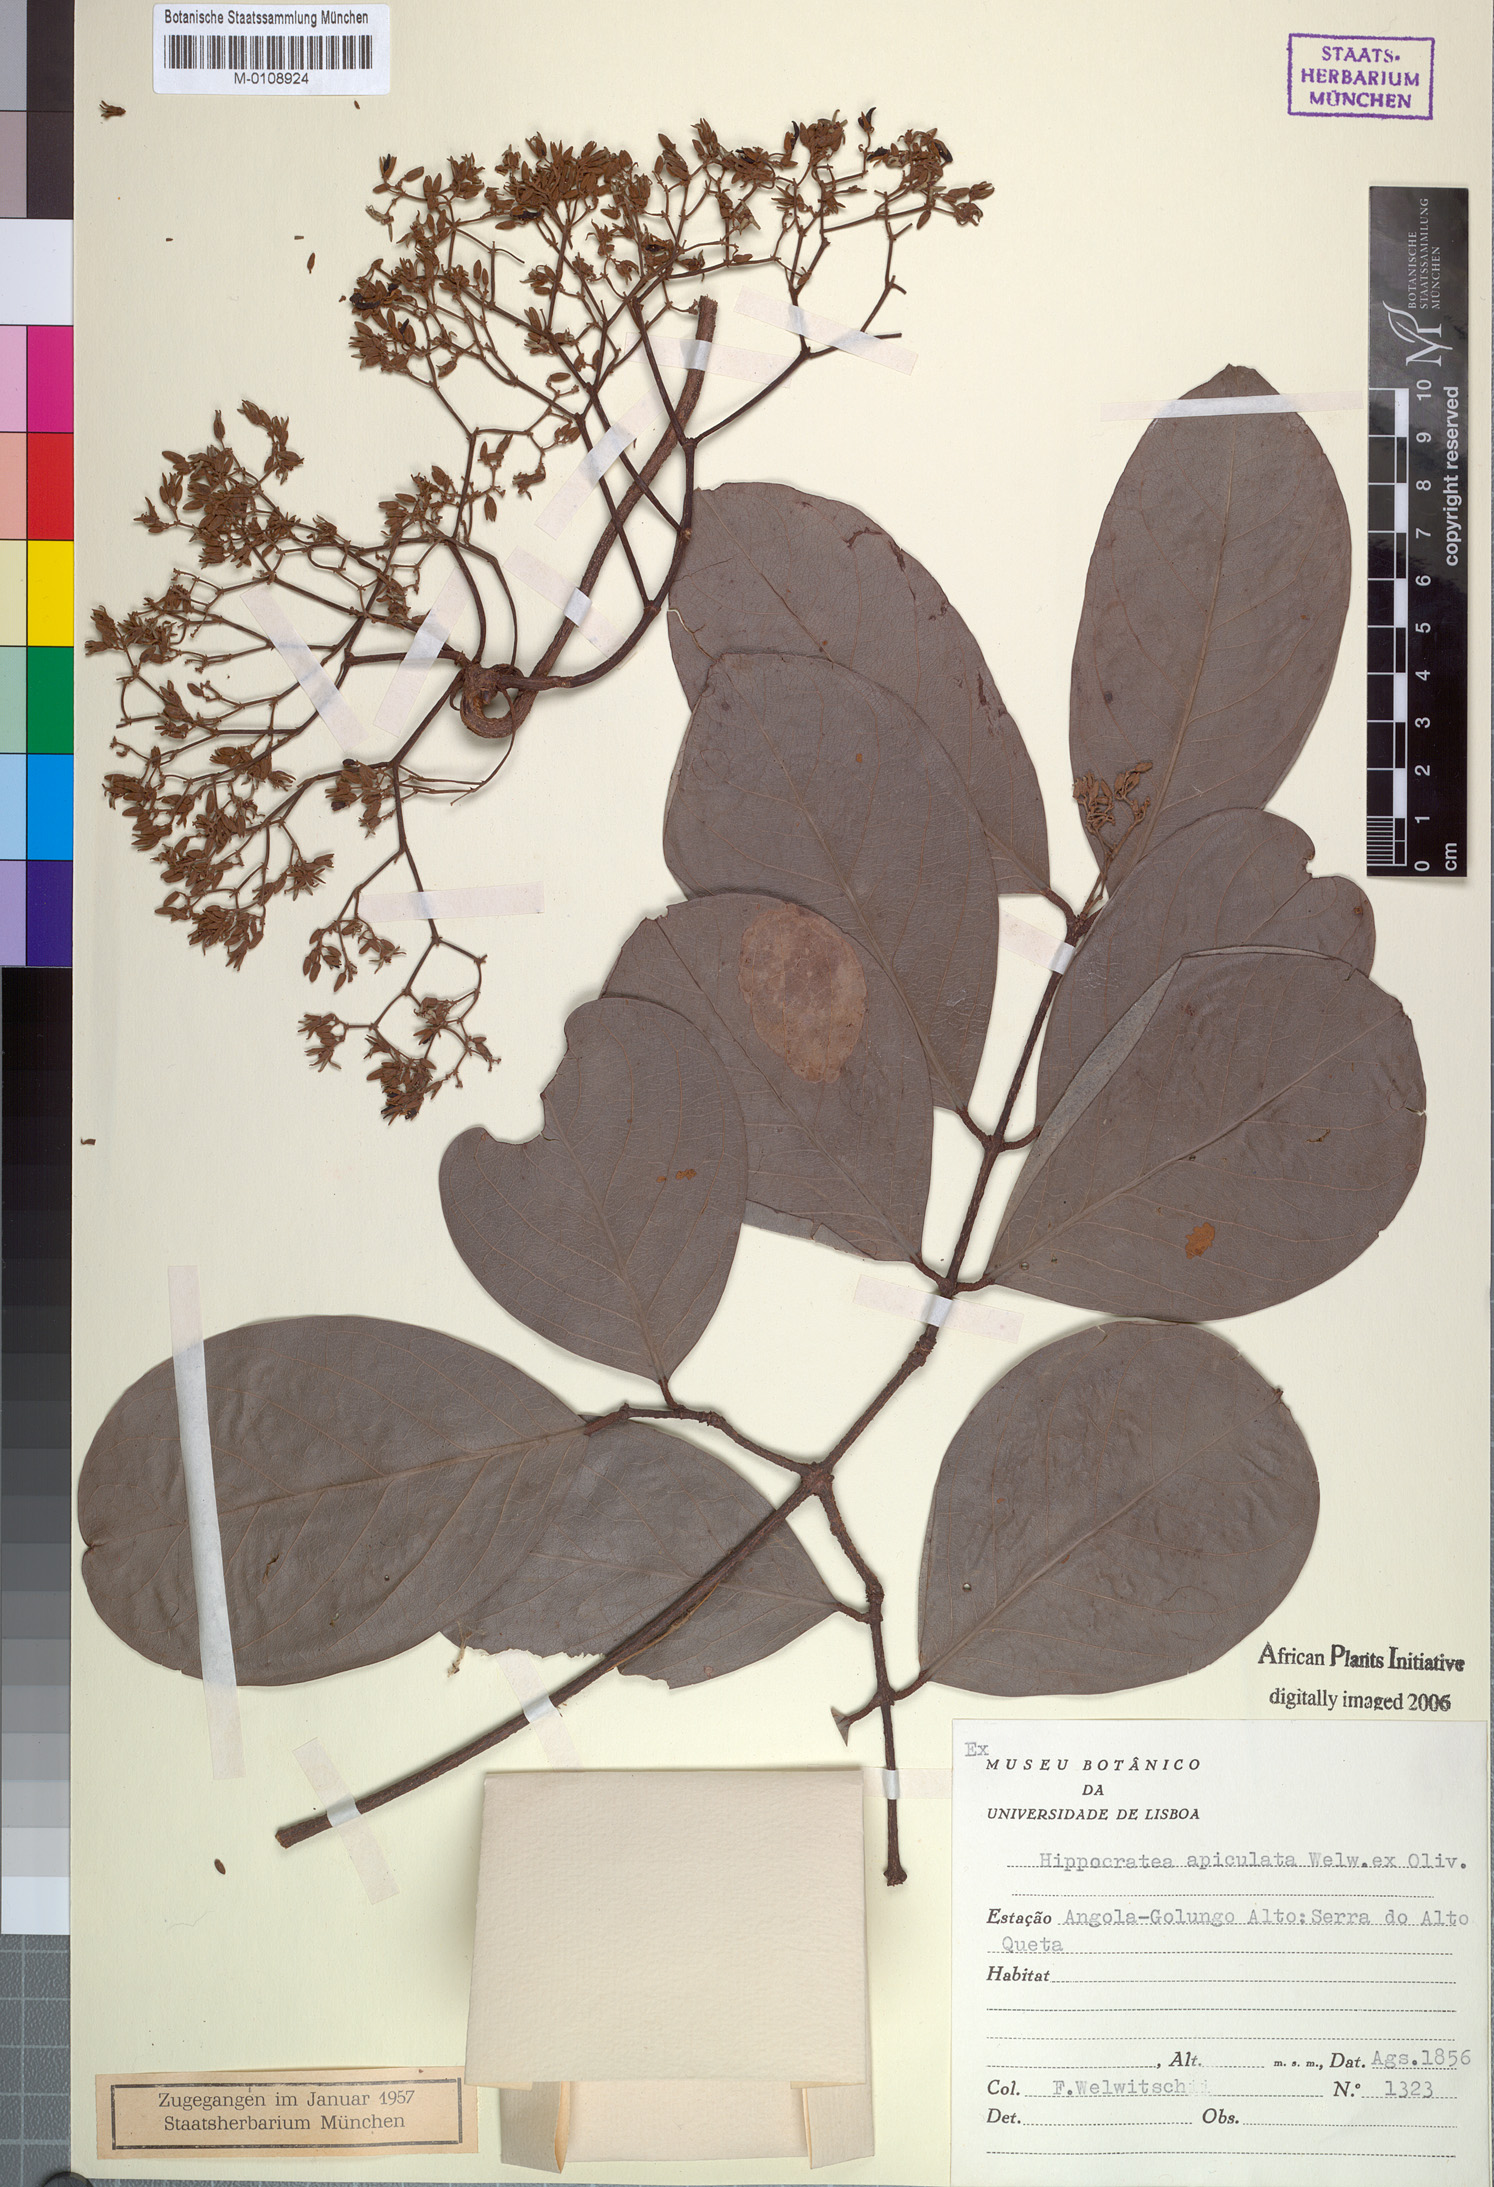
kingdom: Plantae
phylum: Tracheophyta
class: Magnoliopsida
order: Celastrales
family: Celastraceae
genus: Loeseneriella
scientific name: Loeseneriella apiculata
